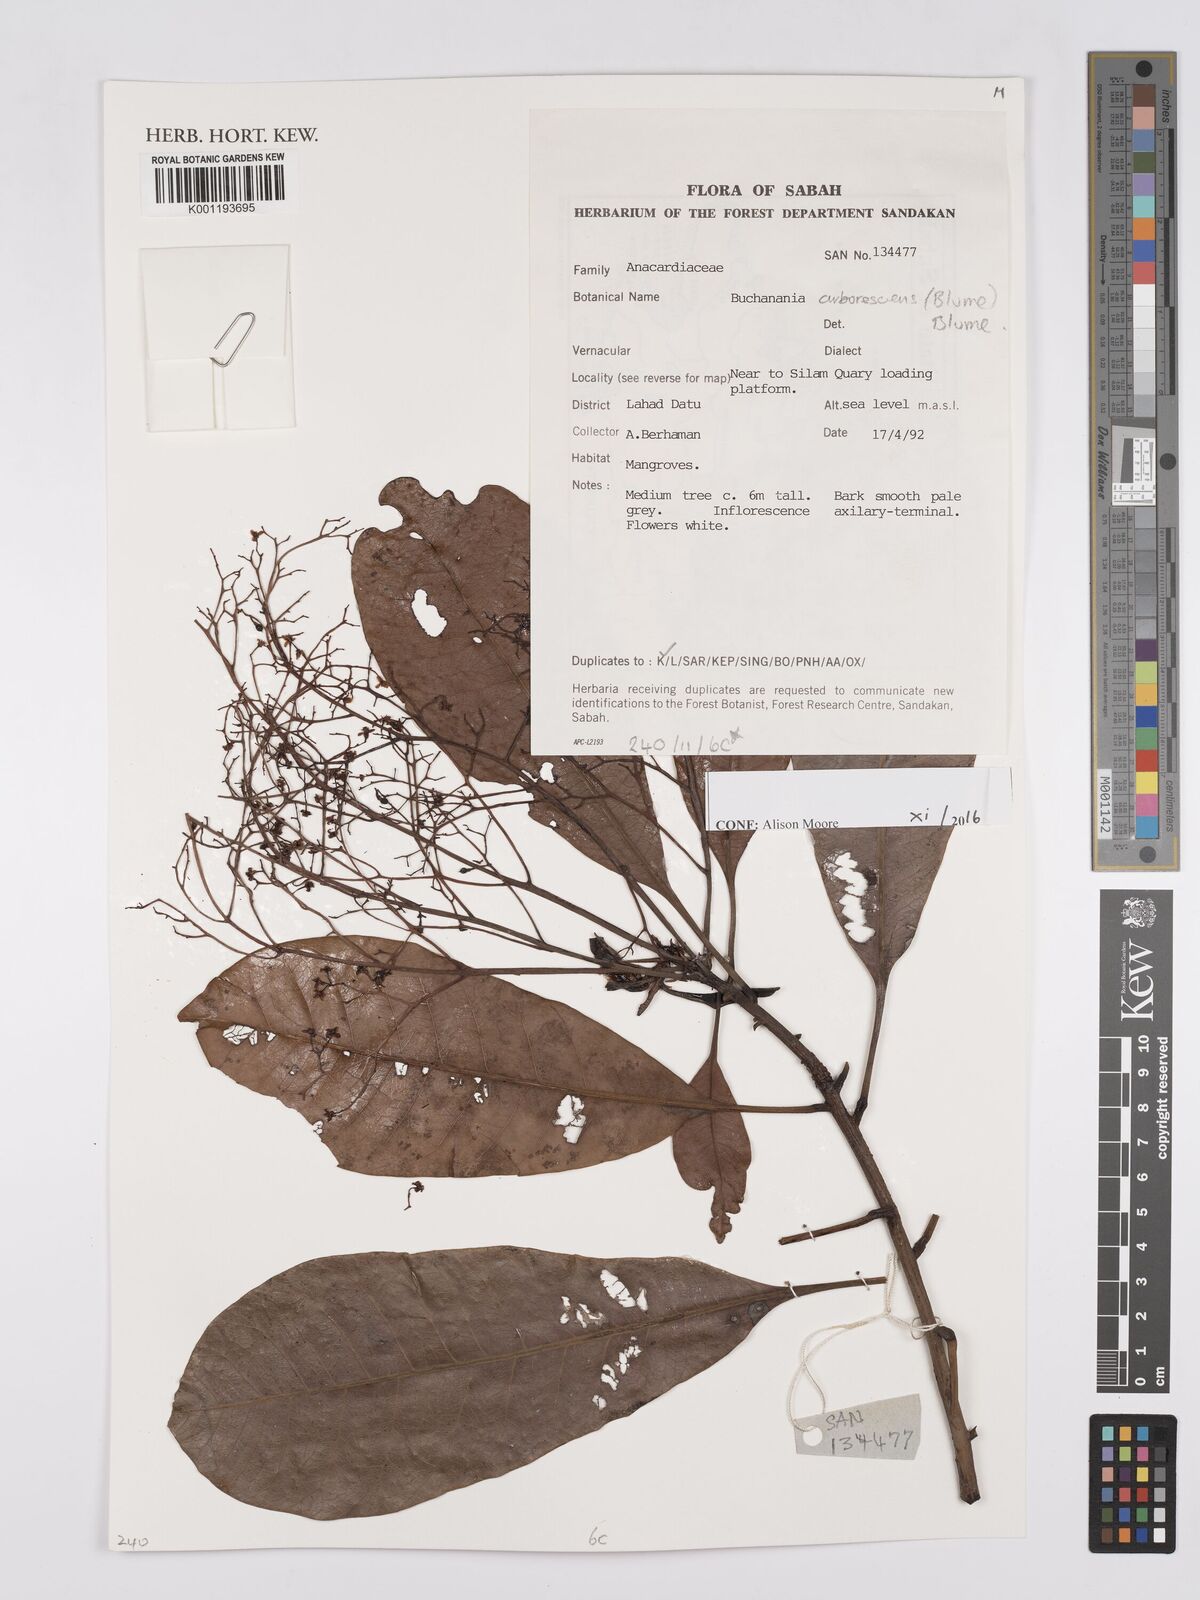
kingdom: Plantae
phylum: Tracheophyta
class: Magnoliopsida
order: Sapindales
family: Anacardiaceae
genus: Buchanania
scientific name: Buchanania arborescens
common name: Sparrow’s mango
